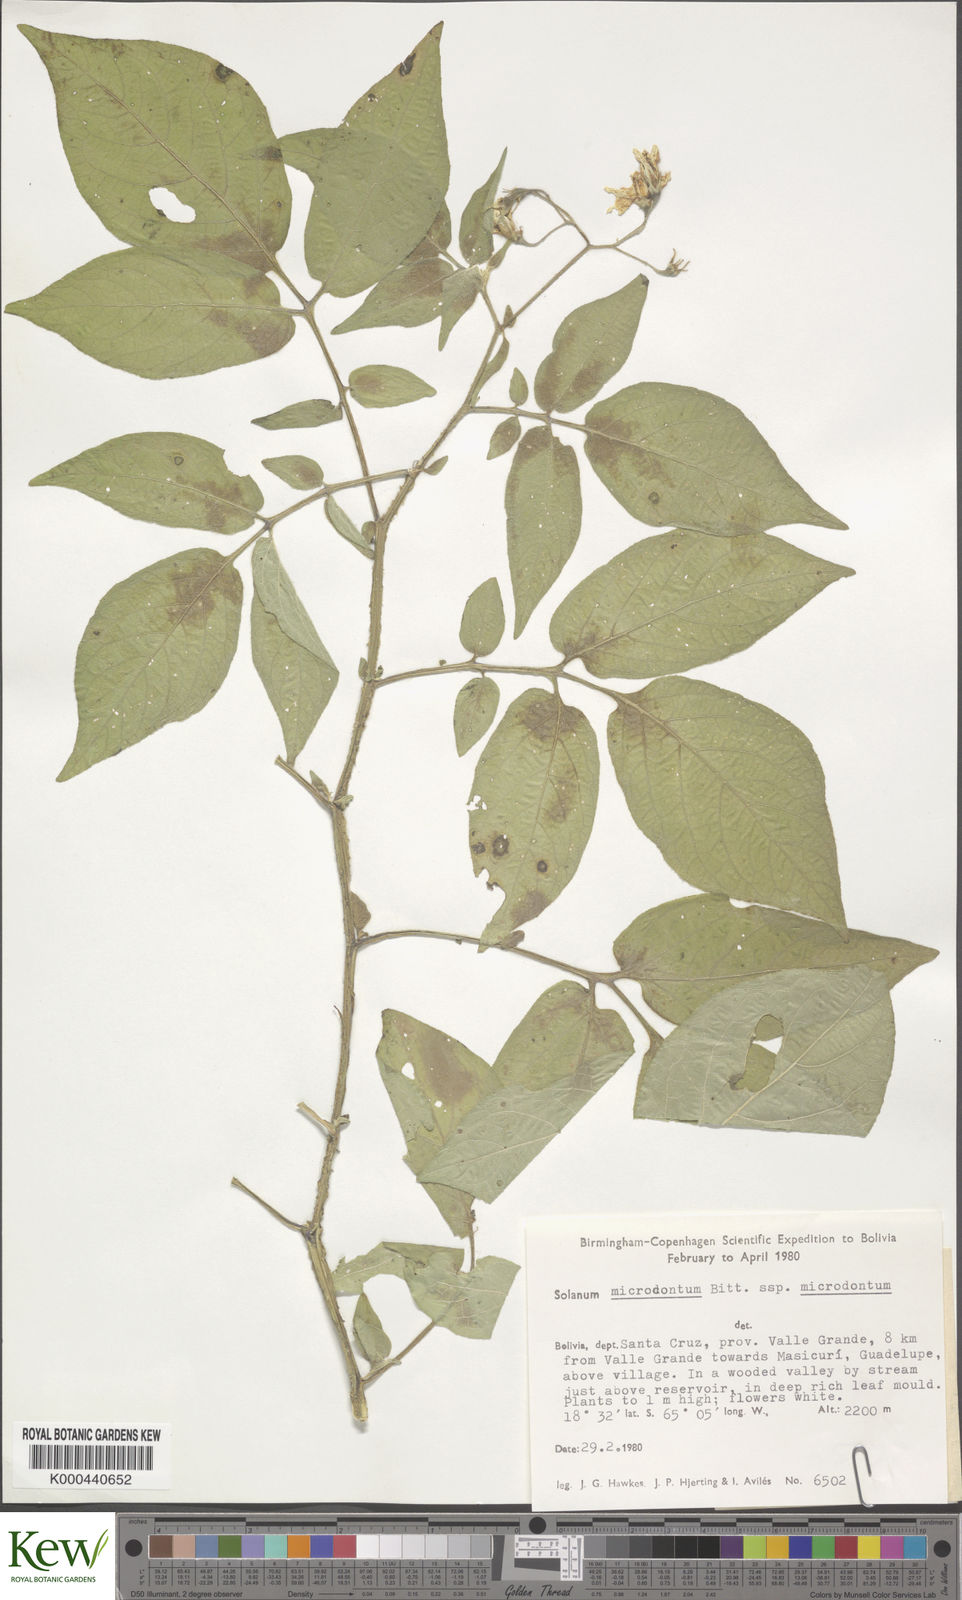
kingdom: Plantae
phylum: Tracheophyta
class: Magnoliopsida
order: Solanales
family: Solanaceae
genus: Solanum
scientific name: Solanum microdontum
